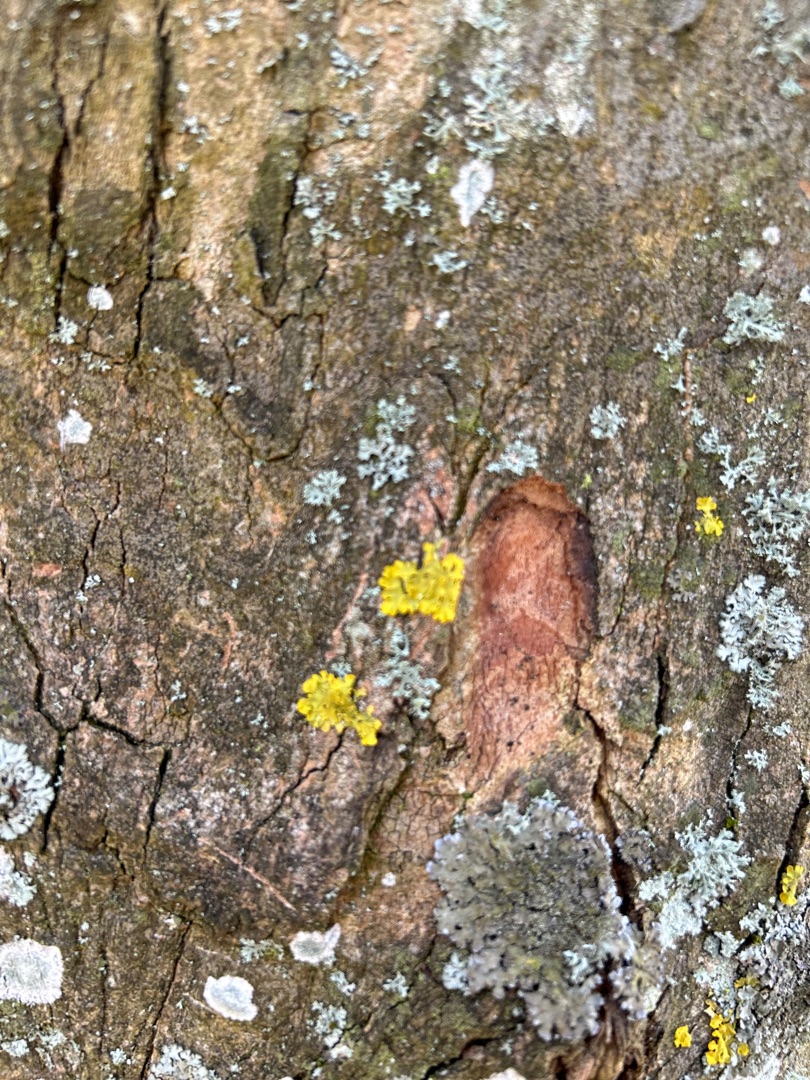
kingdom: Fungi
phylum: Ascomycota
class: Lecanoromycetes
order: Teloschistales
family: Teloschistaceae
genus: Xanthoria
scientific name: Xanthoria parietina
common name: Almindelig væggelav
